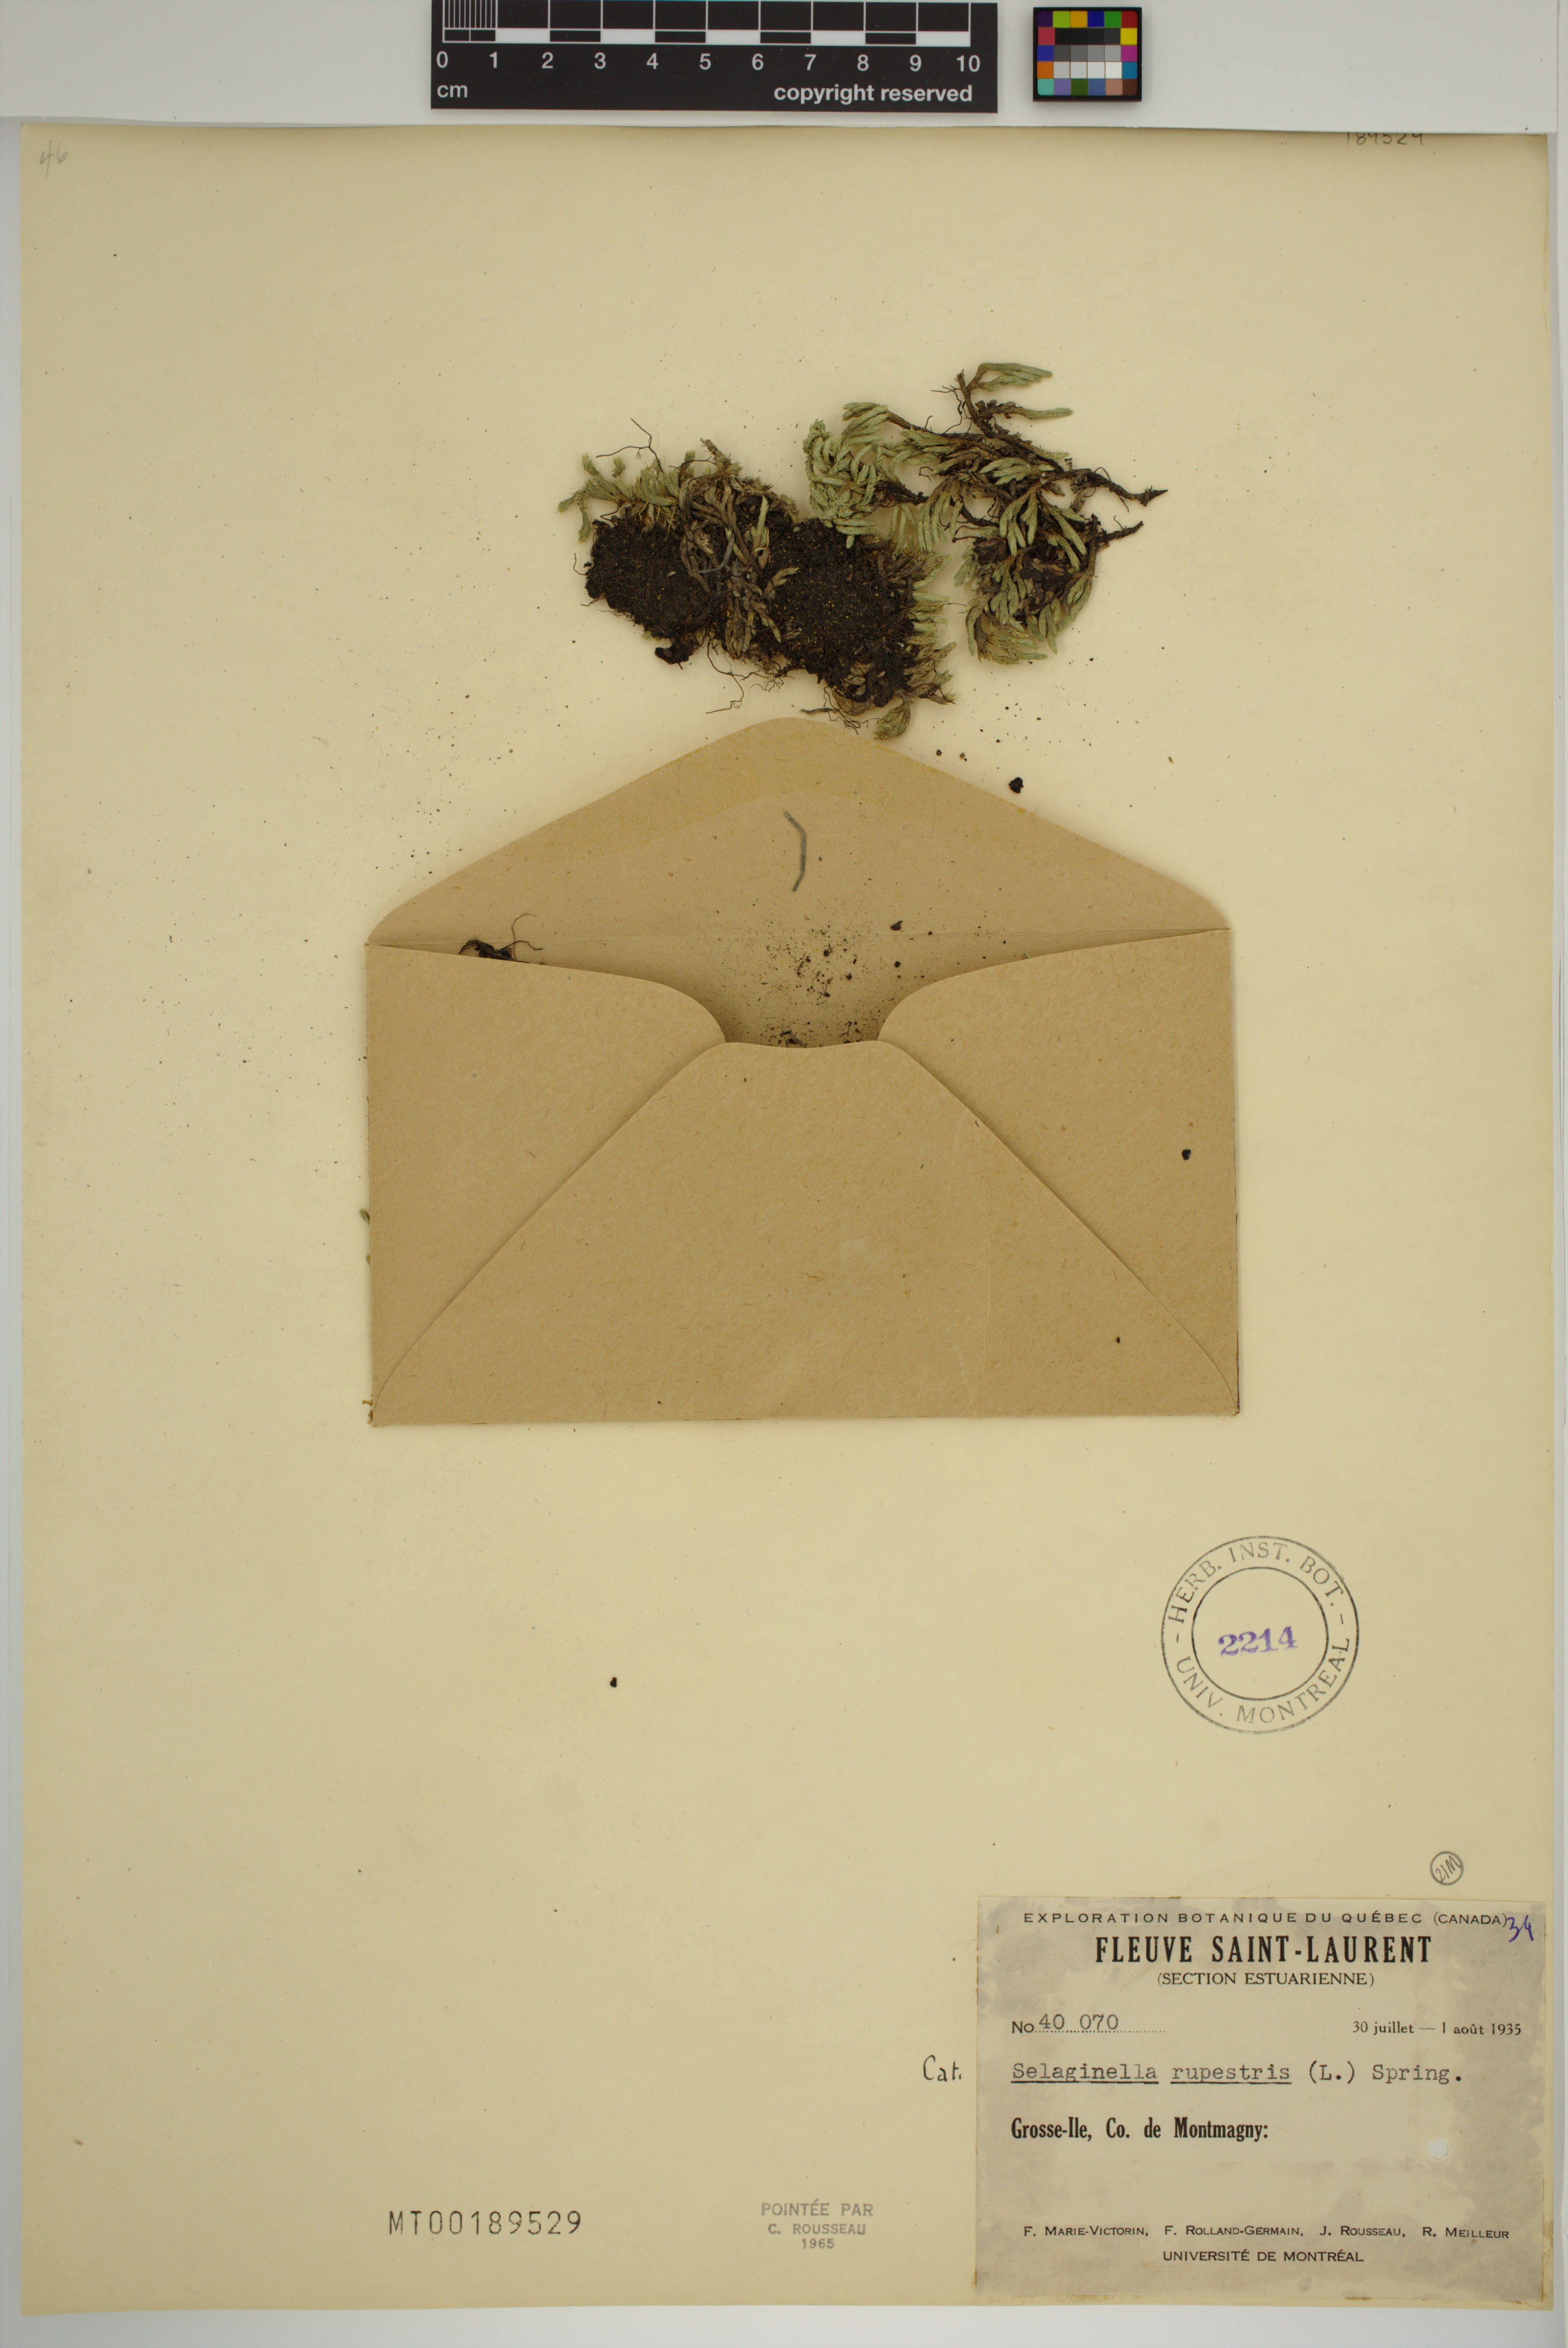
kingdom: Plantae
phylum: Tracheophyta
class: Lycopodiopsida
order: Selaginellales
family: Selaginellaceae
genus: Selaginella
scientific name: Selaginella rupestris
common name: Dwarf spikemoss
